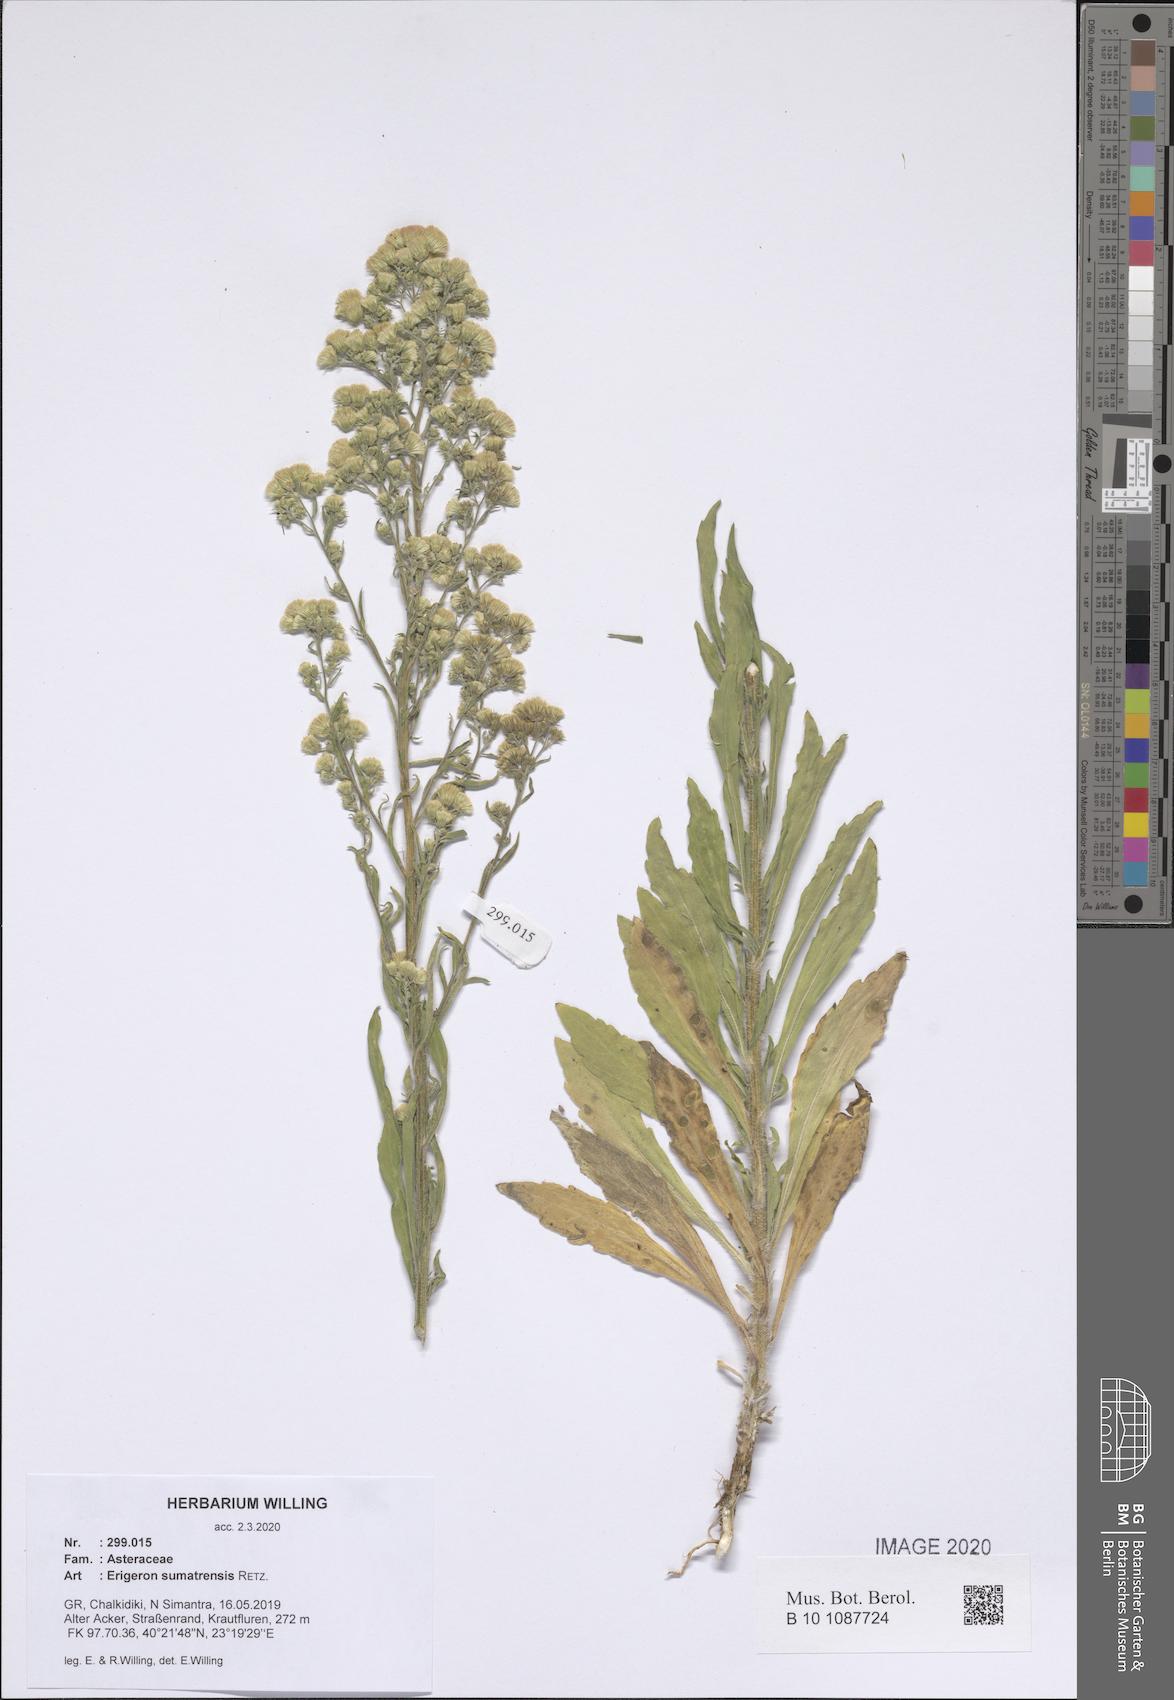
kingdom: Plantae
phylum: Tracheophyta
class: Magnoliopsida
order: Asterales
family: Asteraceae
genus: Erigeron
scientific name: Erigeron sumatrensis
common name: Daisy
